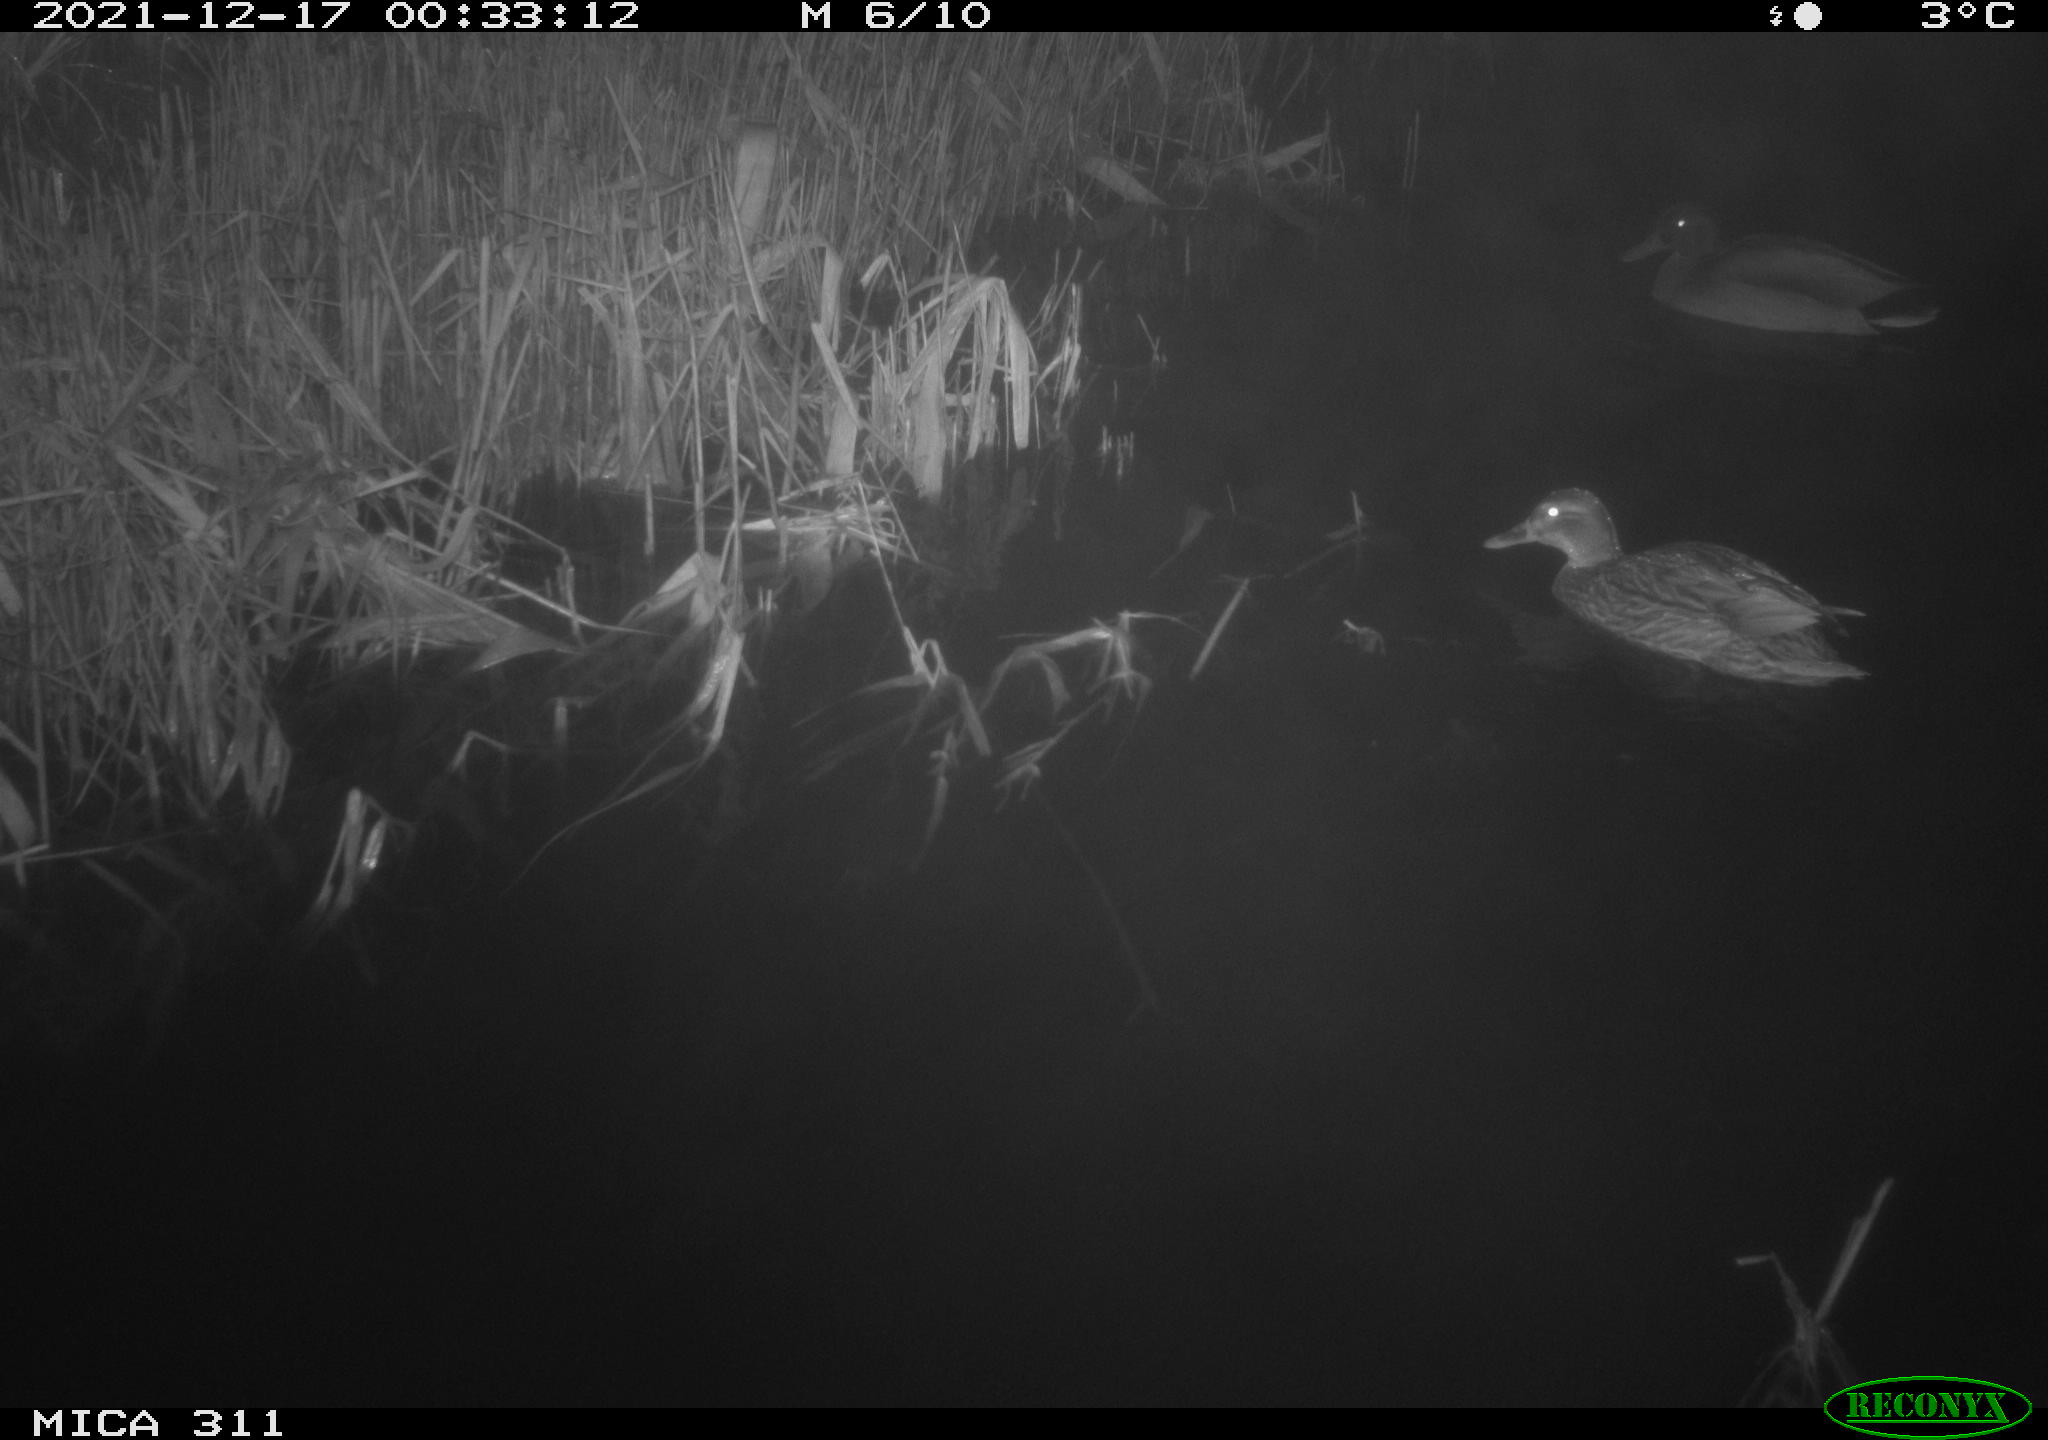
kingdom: Animalia
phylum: Chordata
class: Aves
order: Anseriformes
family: Anatidae
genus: Anas
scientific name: Anas platyrhynchos
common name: Mallard
